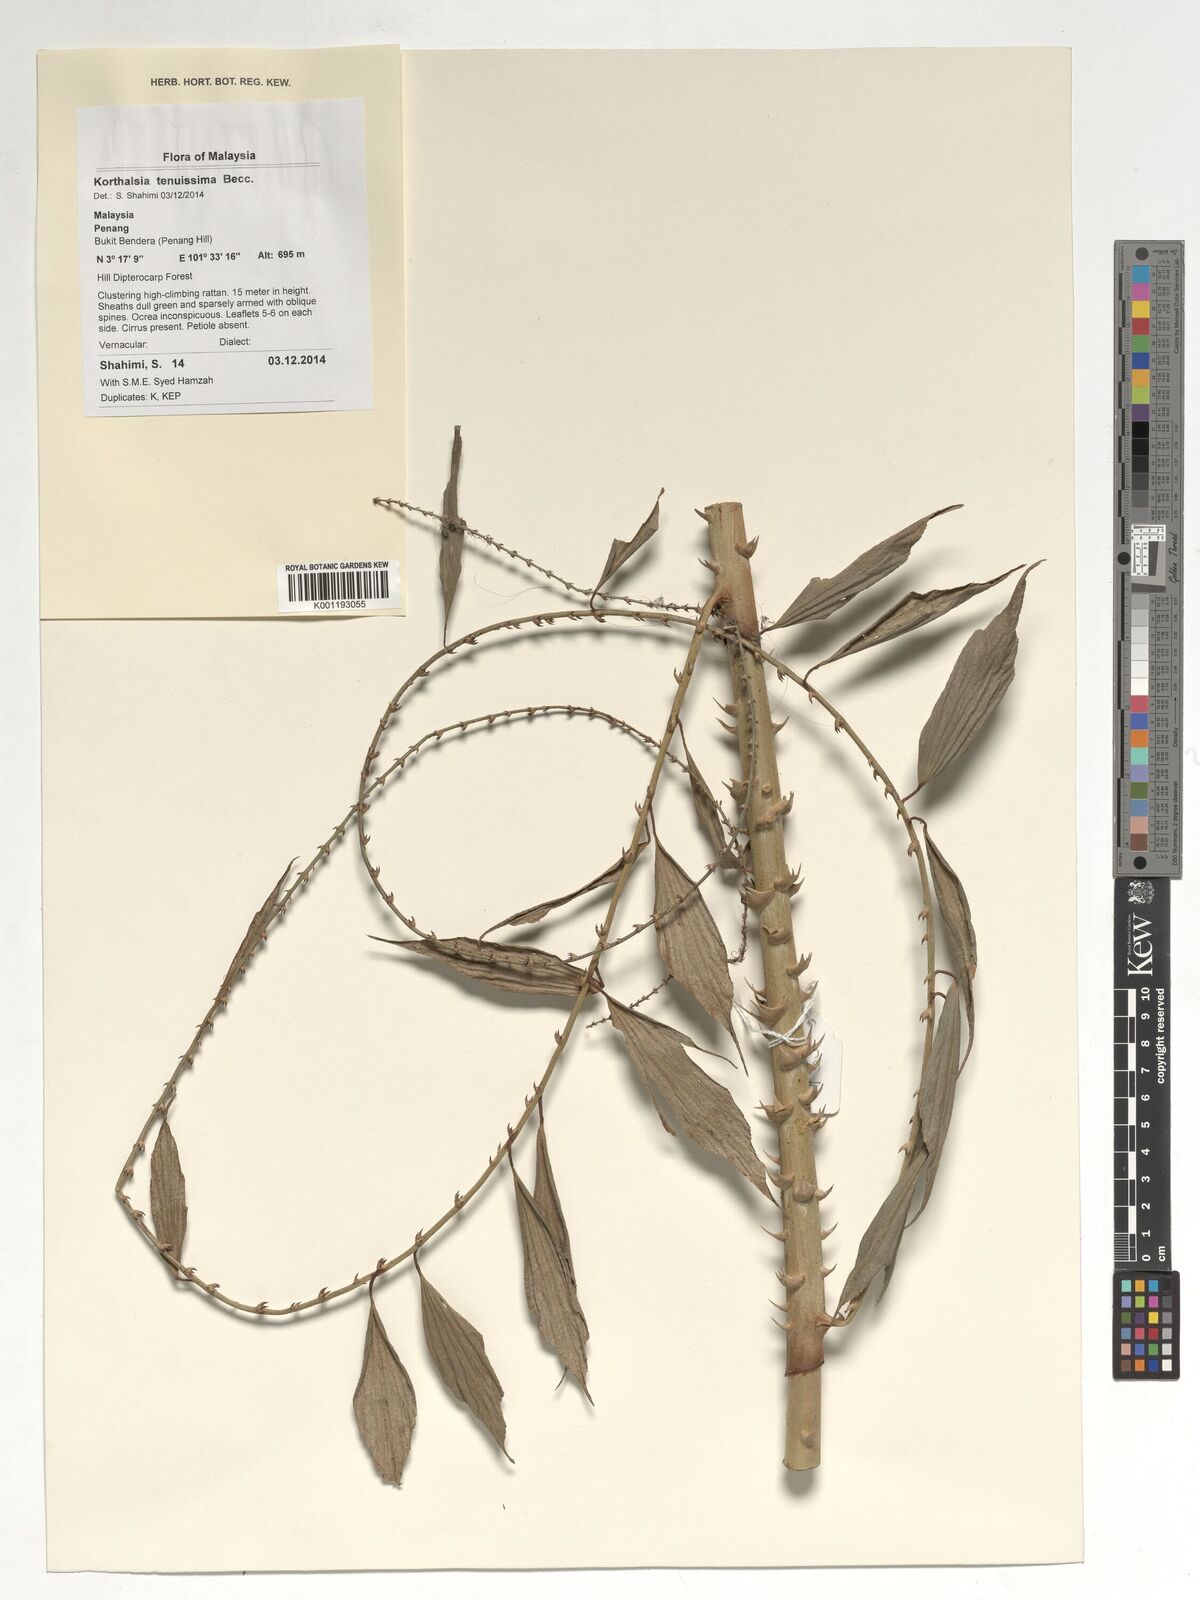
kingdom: Plantae
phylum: Tracheophyta
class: Liliopsida
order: Arecales
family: Arecaceae
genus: Korthalsia
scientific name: Korthalsia tenuissima
